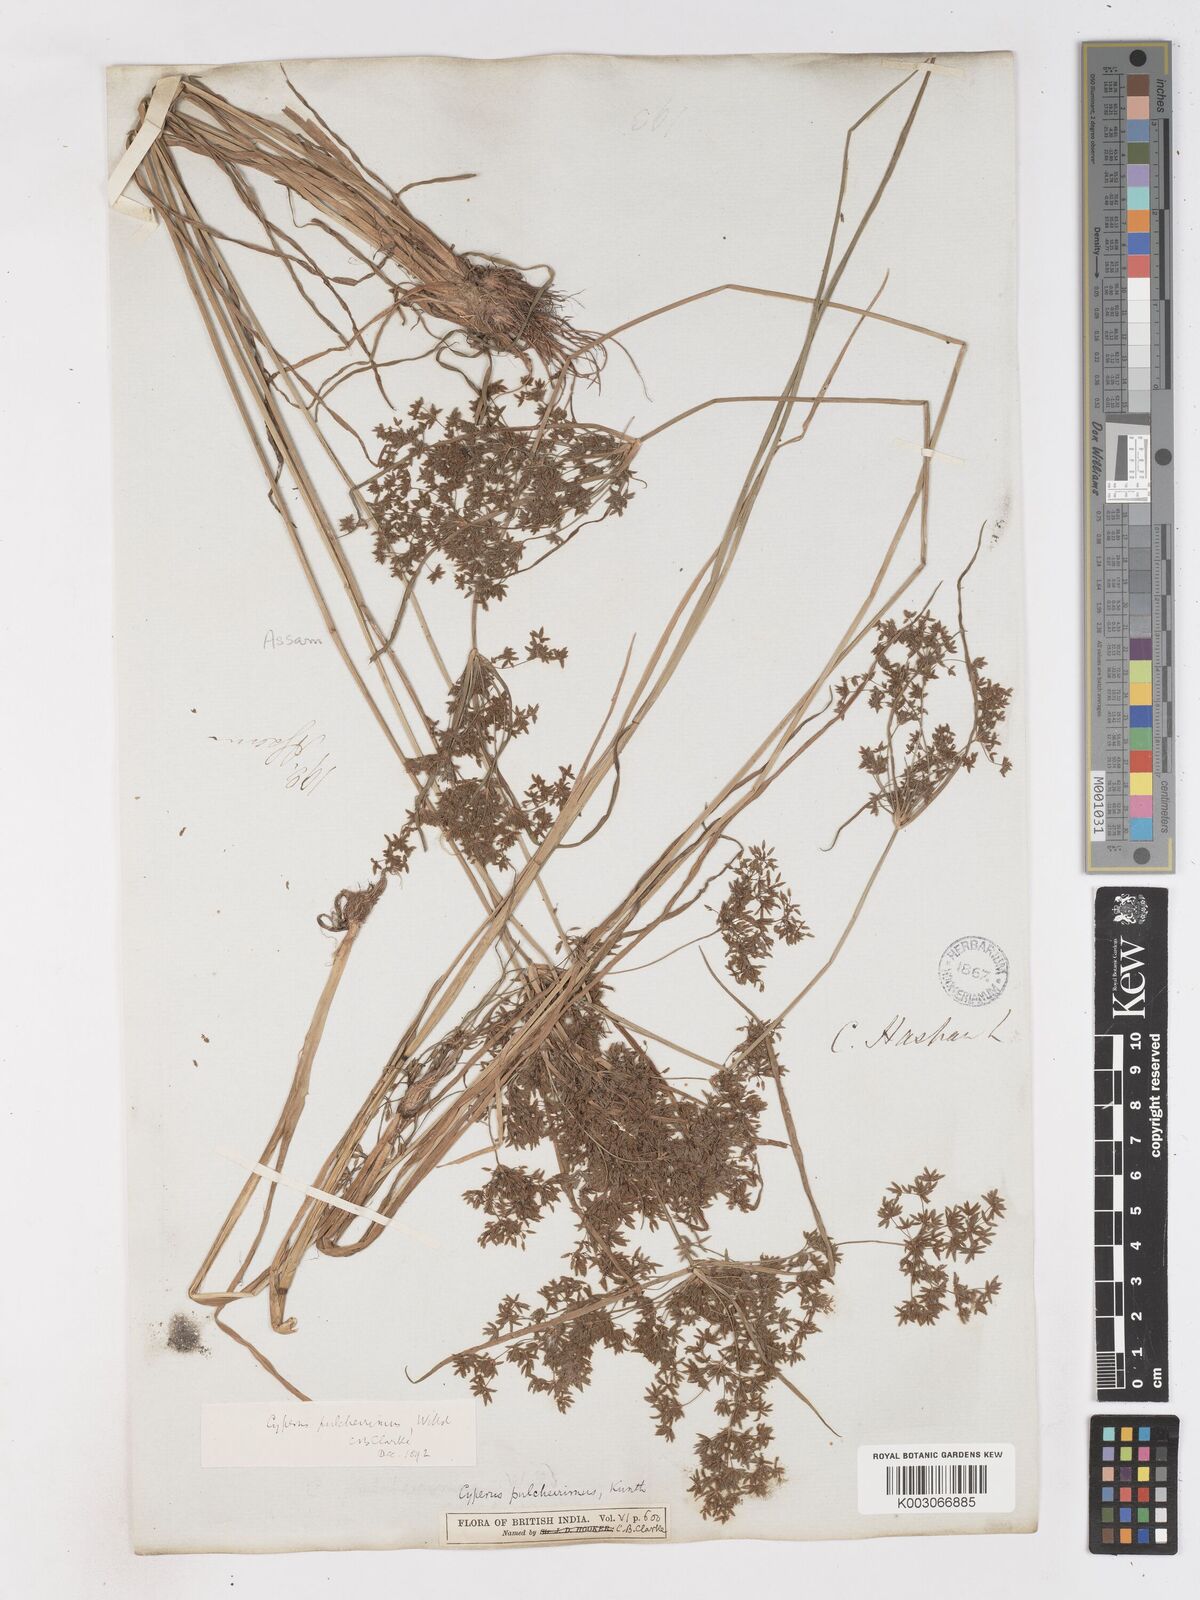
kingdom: Plantae
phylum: Tracheophyta
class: Liliopsida
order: Poales
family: Cyperaceae
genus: Cyperus
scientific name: Cyperus pulcherrimus
